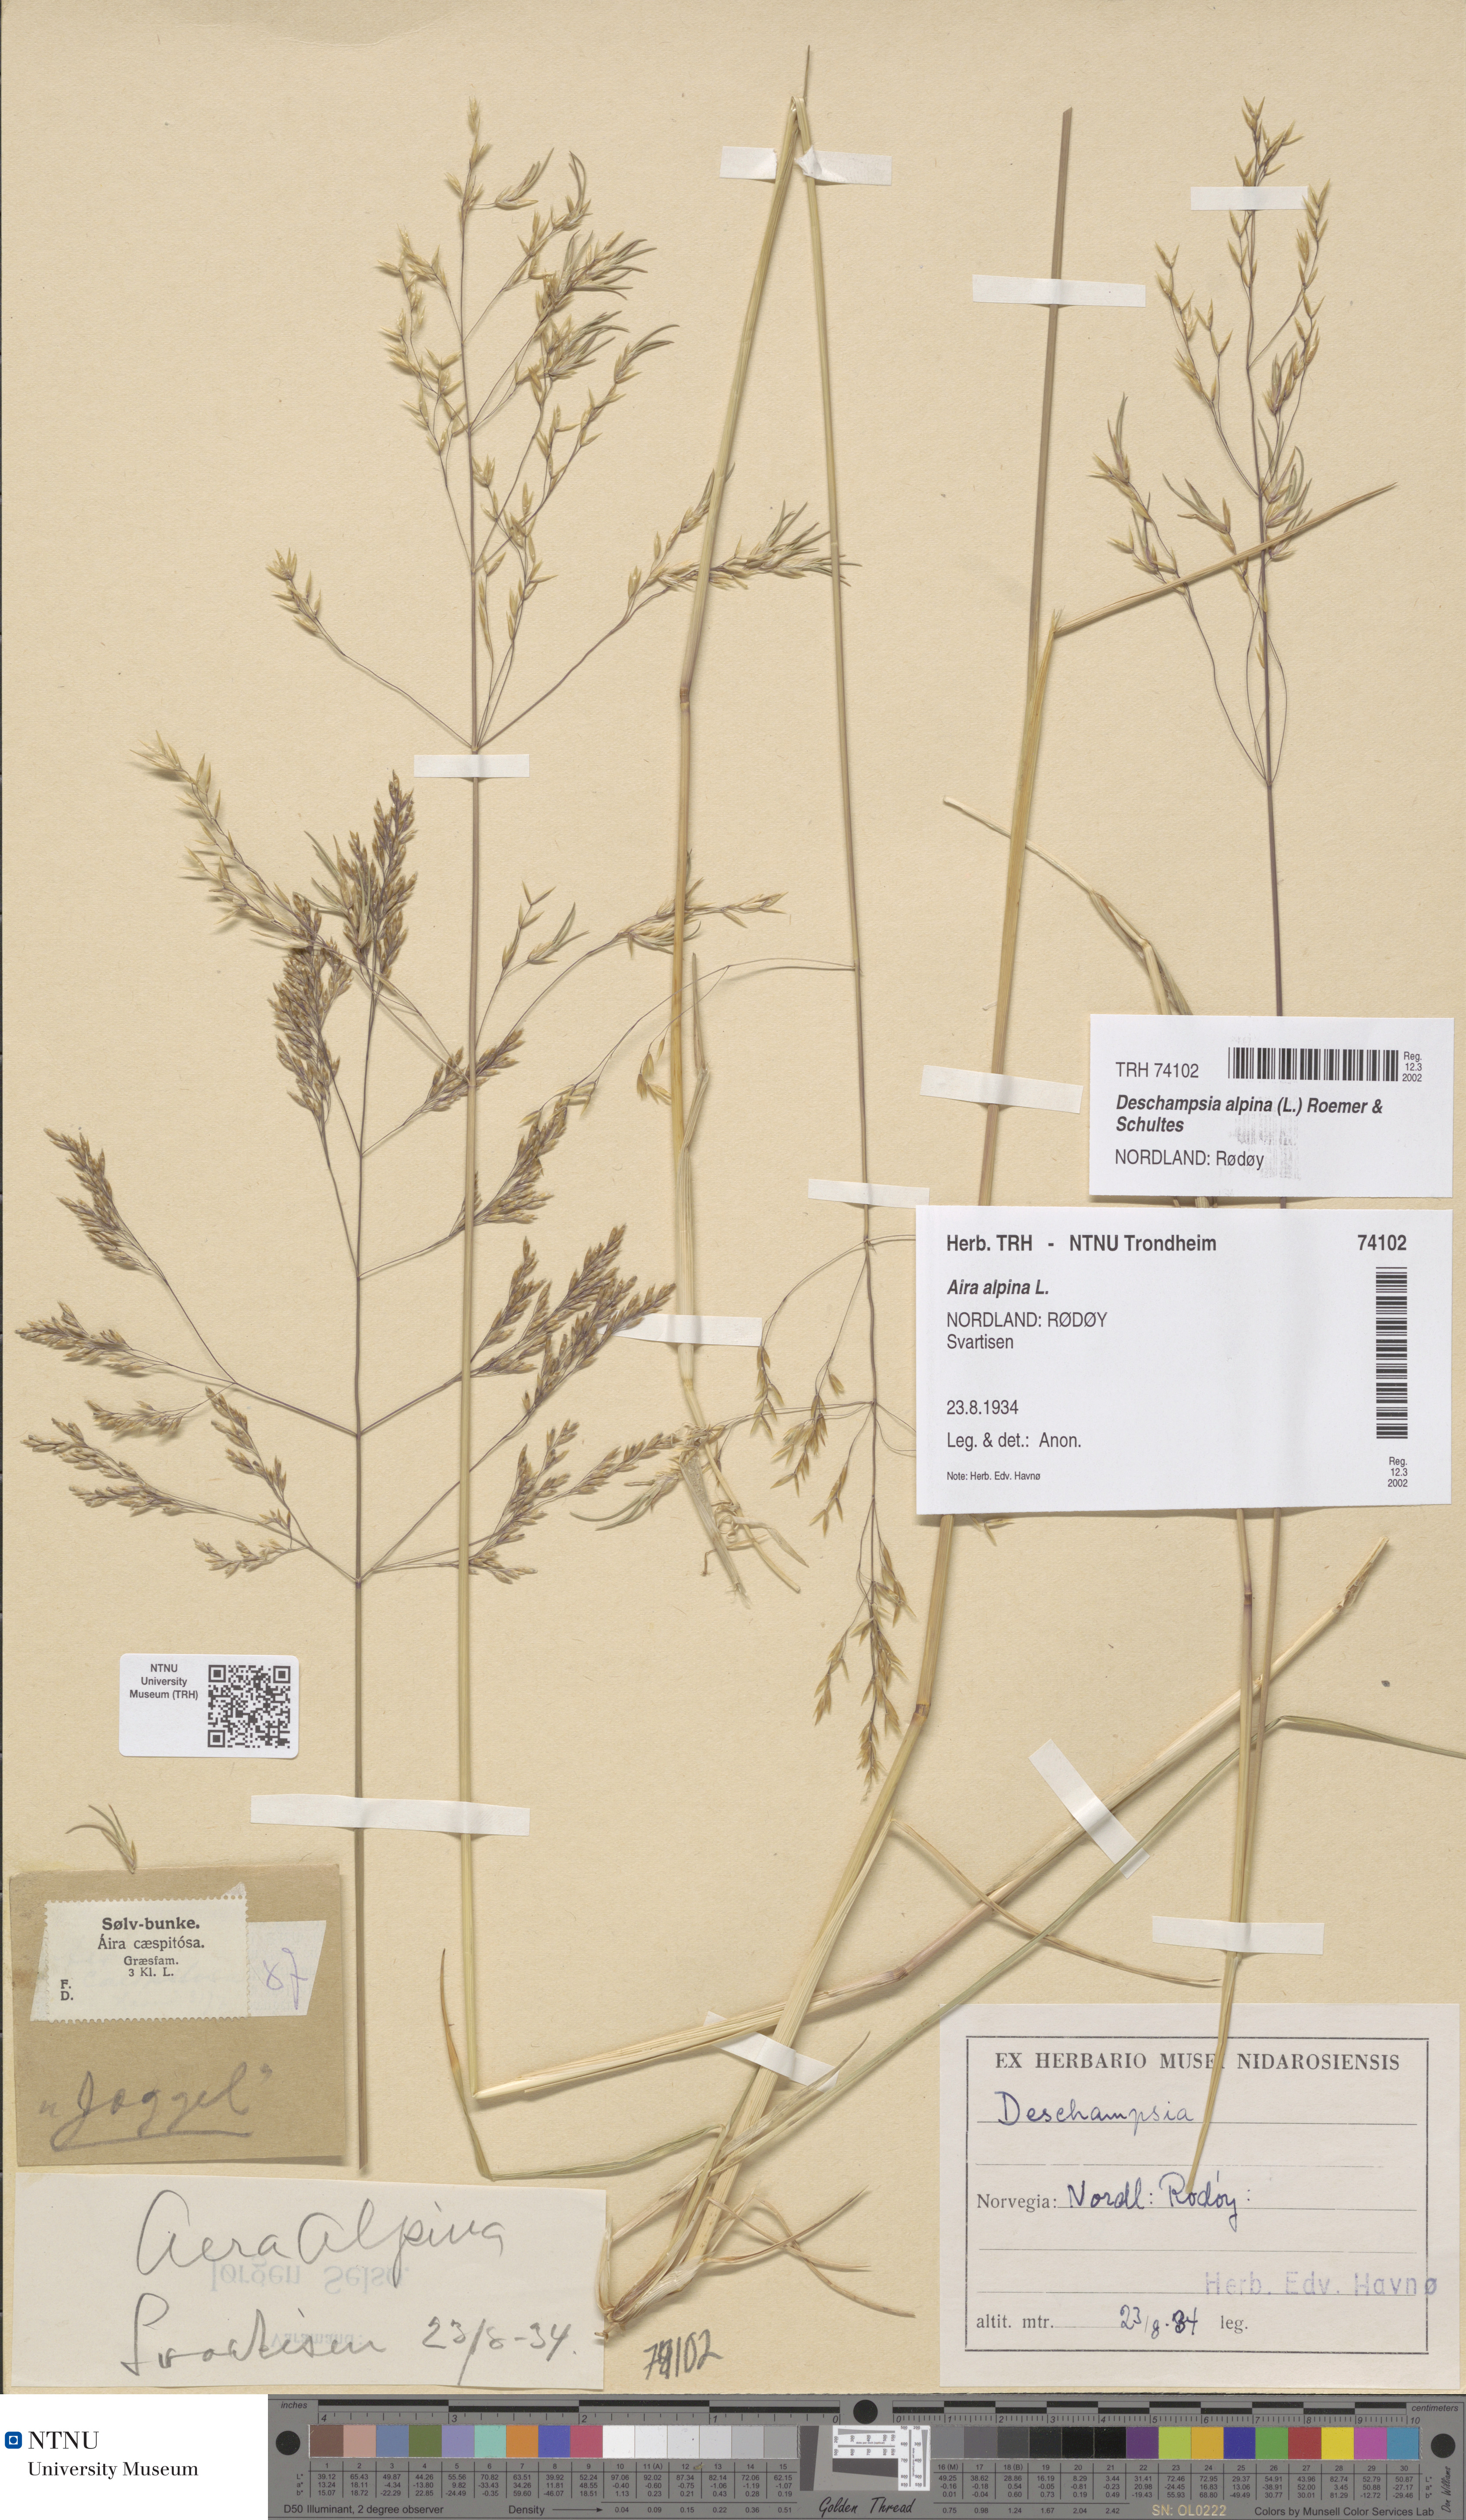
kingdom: Plantae
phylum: Tracheophyta
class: Liliopsida
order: Poales
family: Poaceae
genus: Deschampsia
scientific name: Deschampsia cespitosa
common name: Tufted hair-grass
